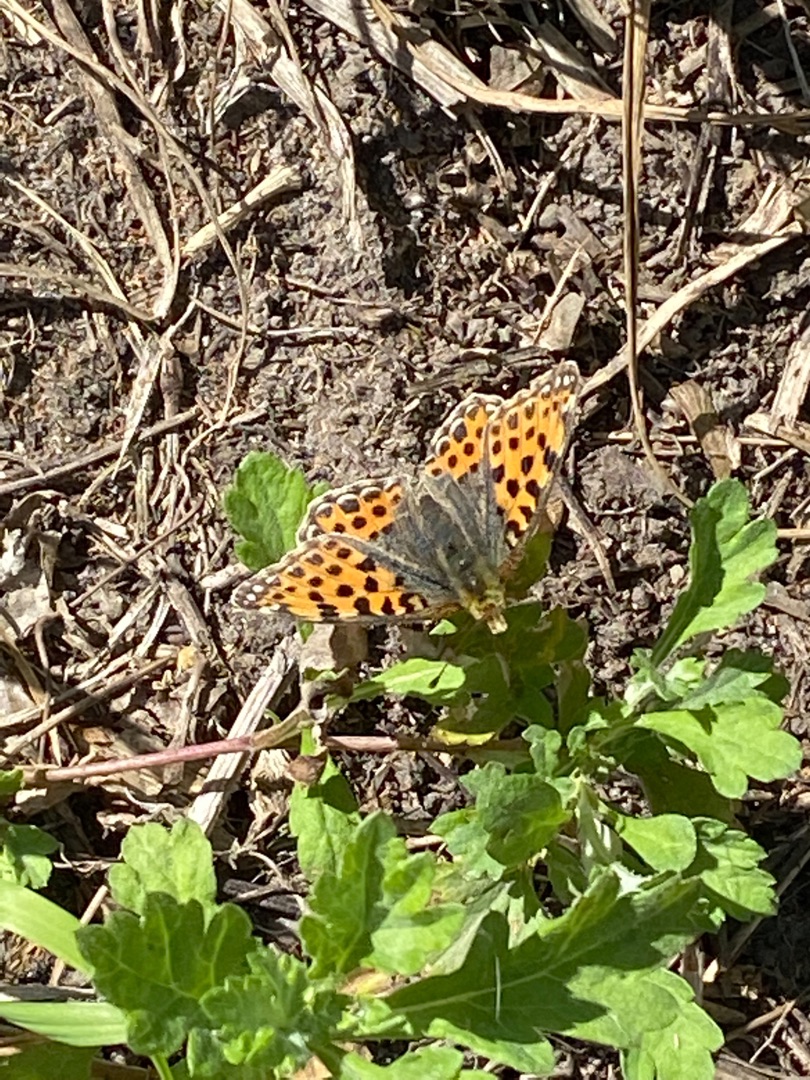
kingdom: Animalia
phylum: Arthropoda
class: Insecta
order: Lepidoptera
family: Nymphalidae
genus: Issoria
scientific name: Issoria lathonia
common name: Storplettet perlemorsommerfugl
